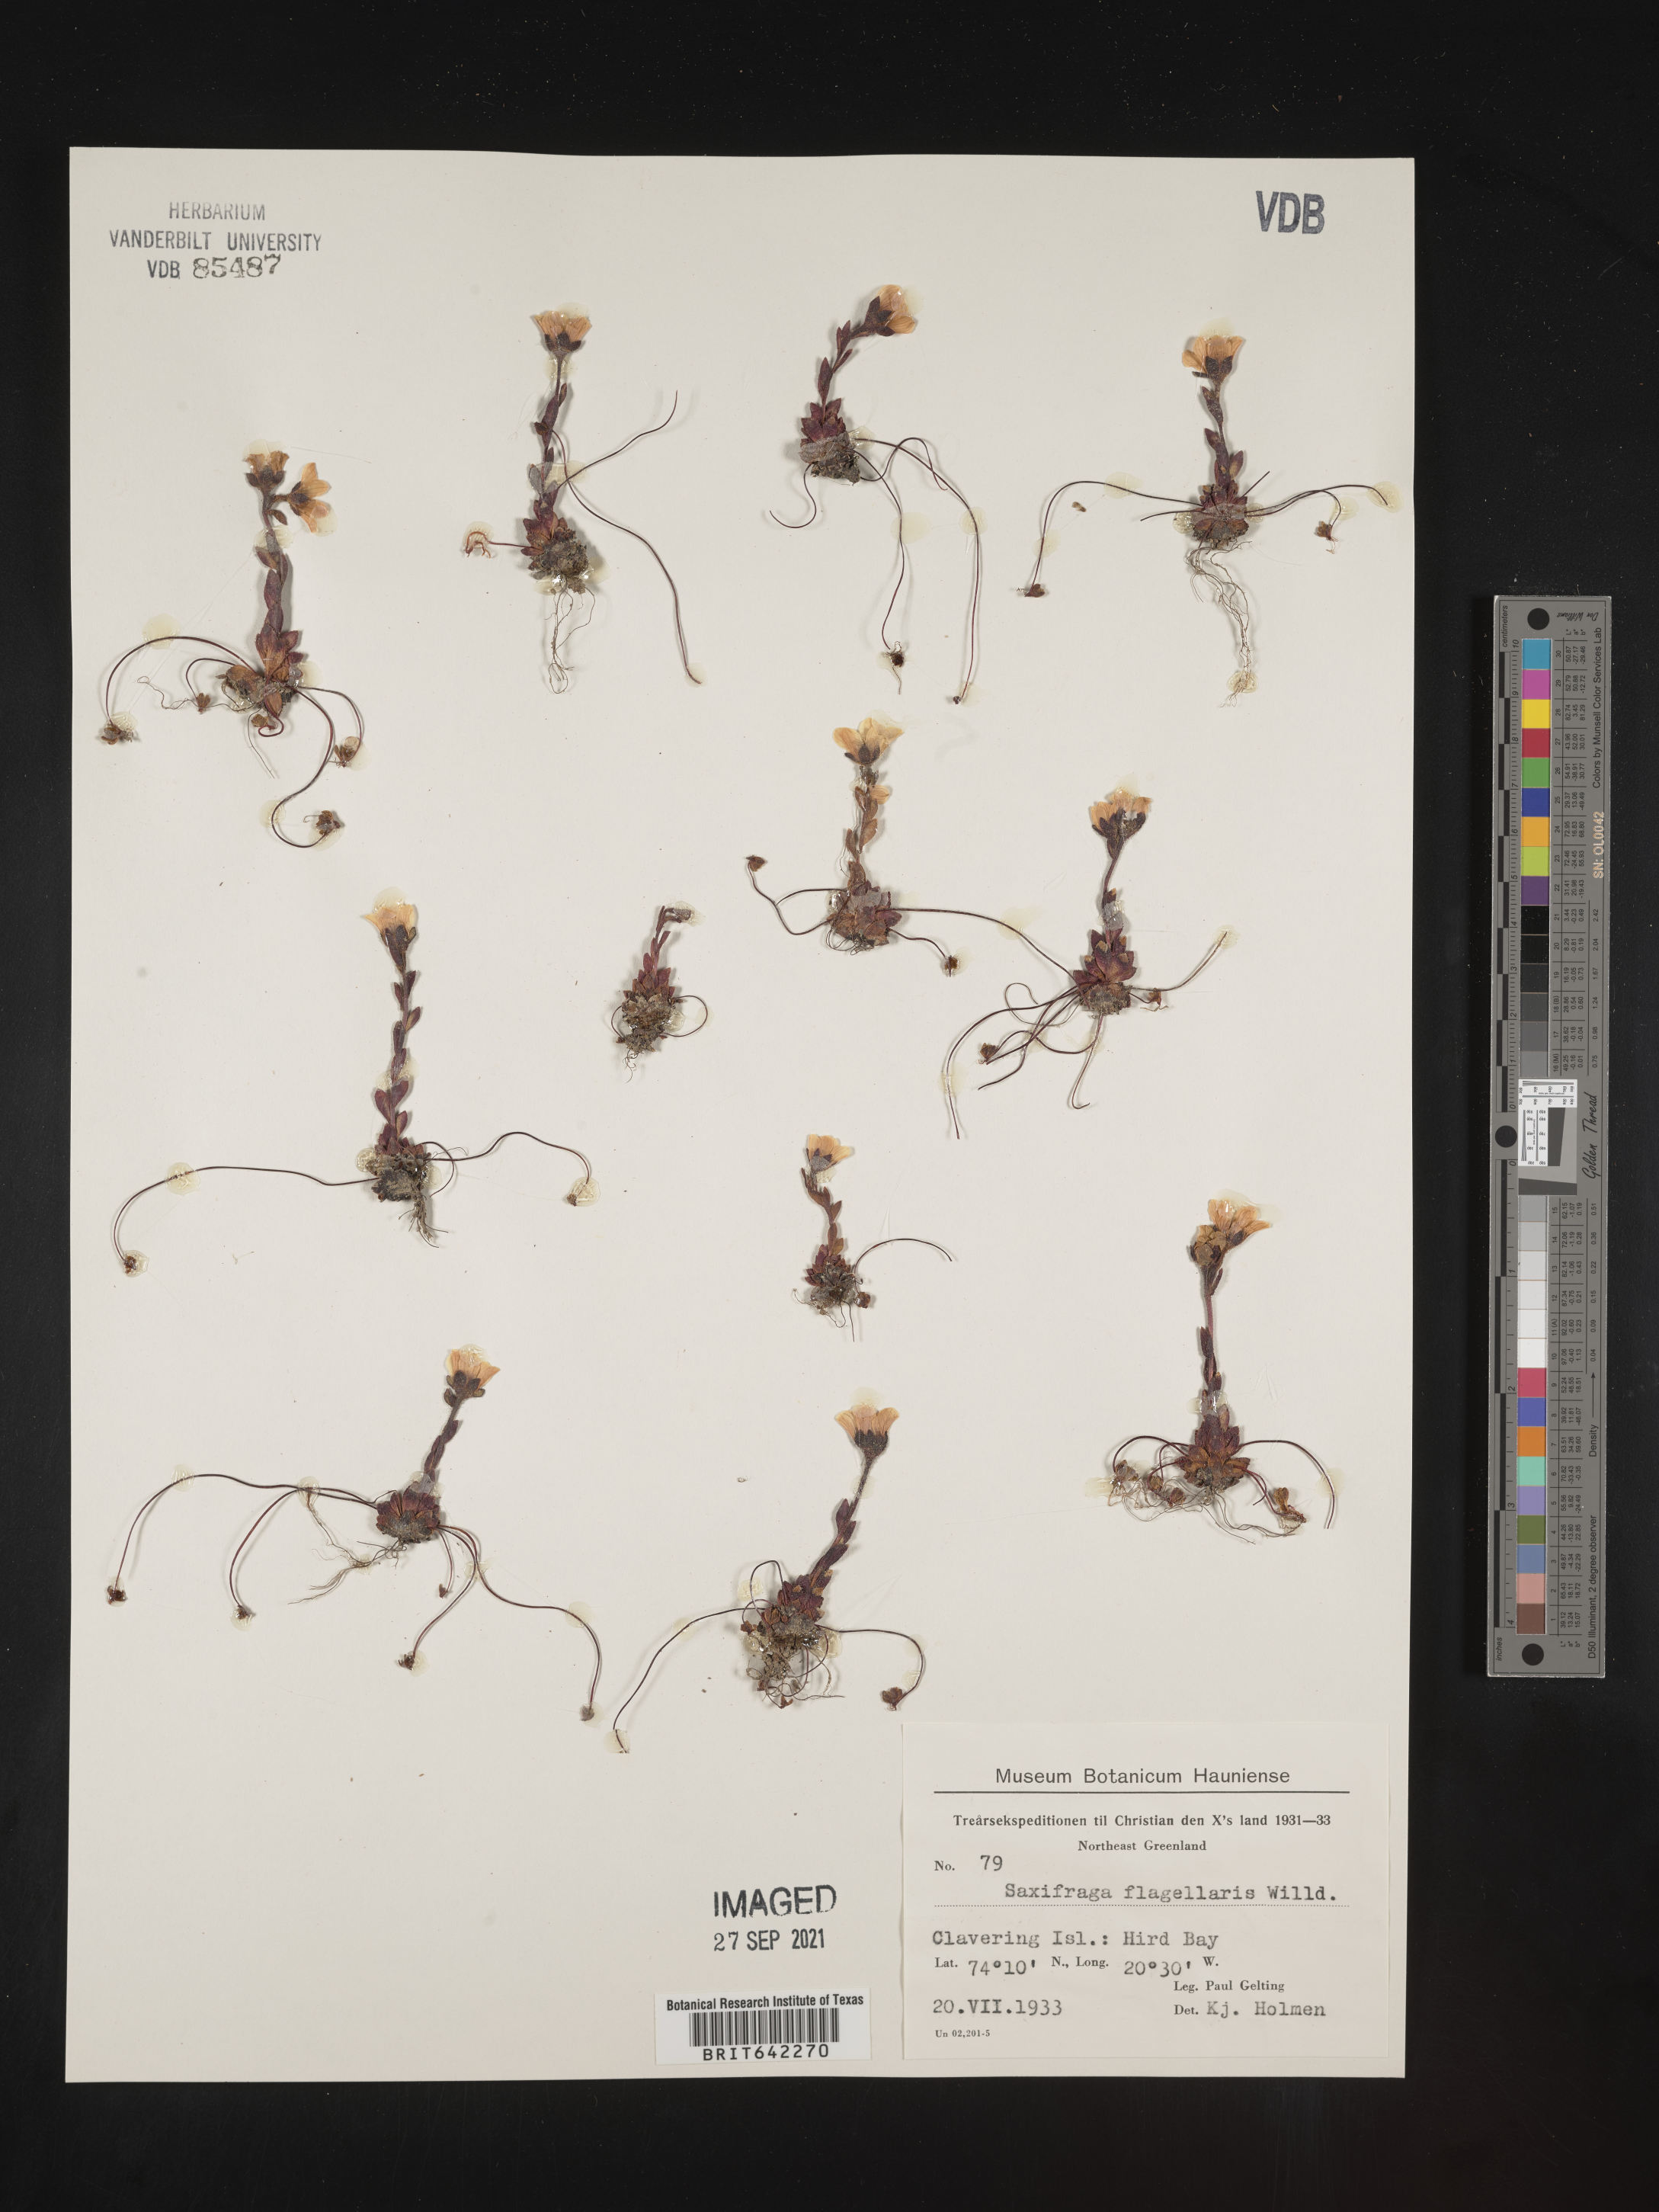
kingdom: Plantae
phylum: Tracheophyta
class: Magnoliopsida
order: Saxifragales
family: Saxifragaceae
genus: Saxifraga
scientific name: Saxifraga
